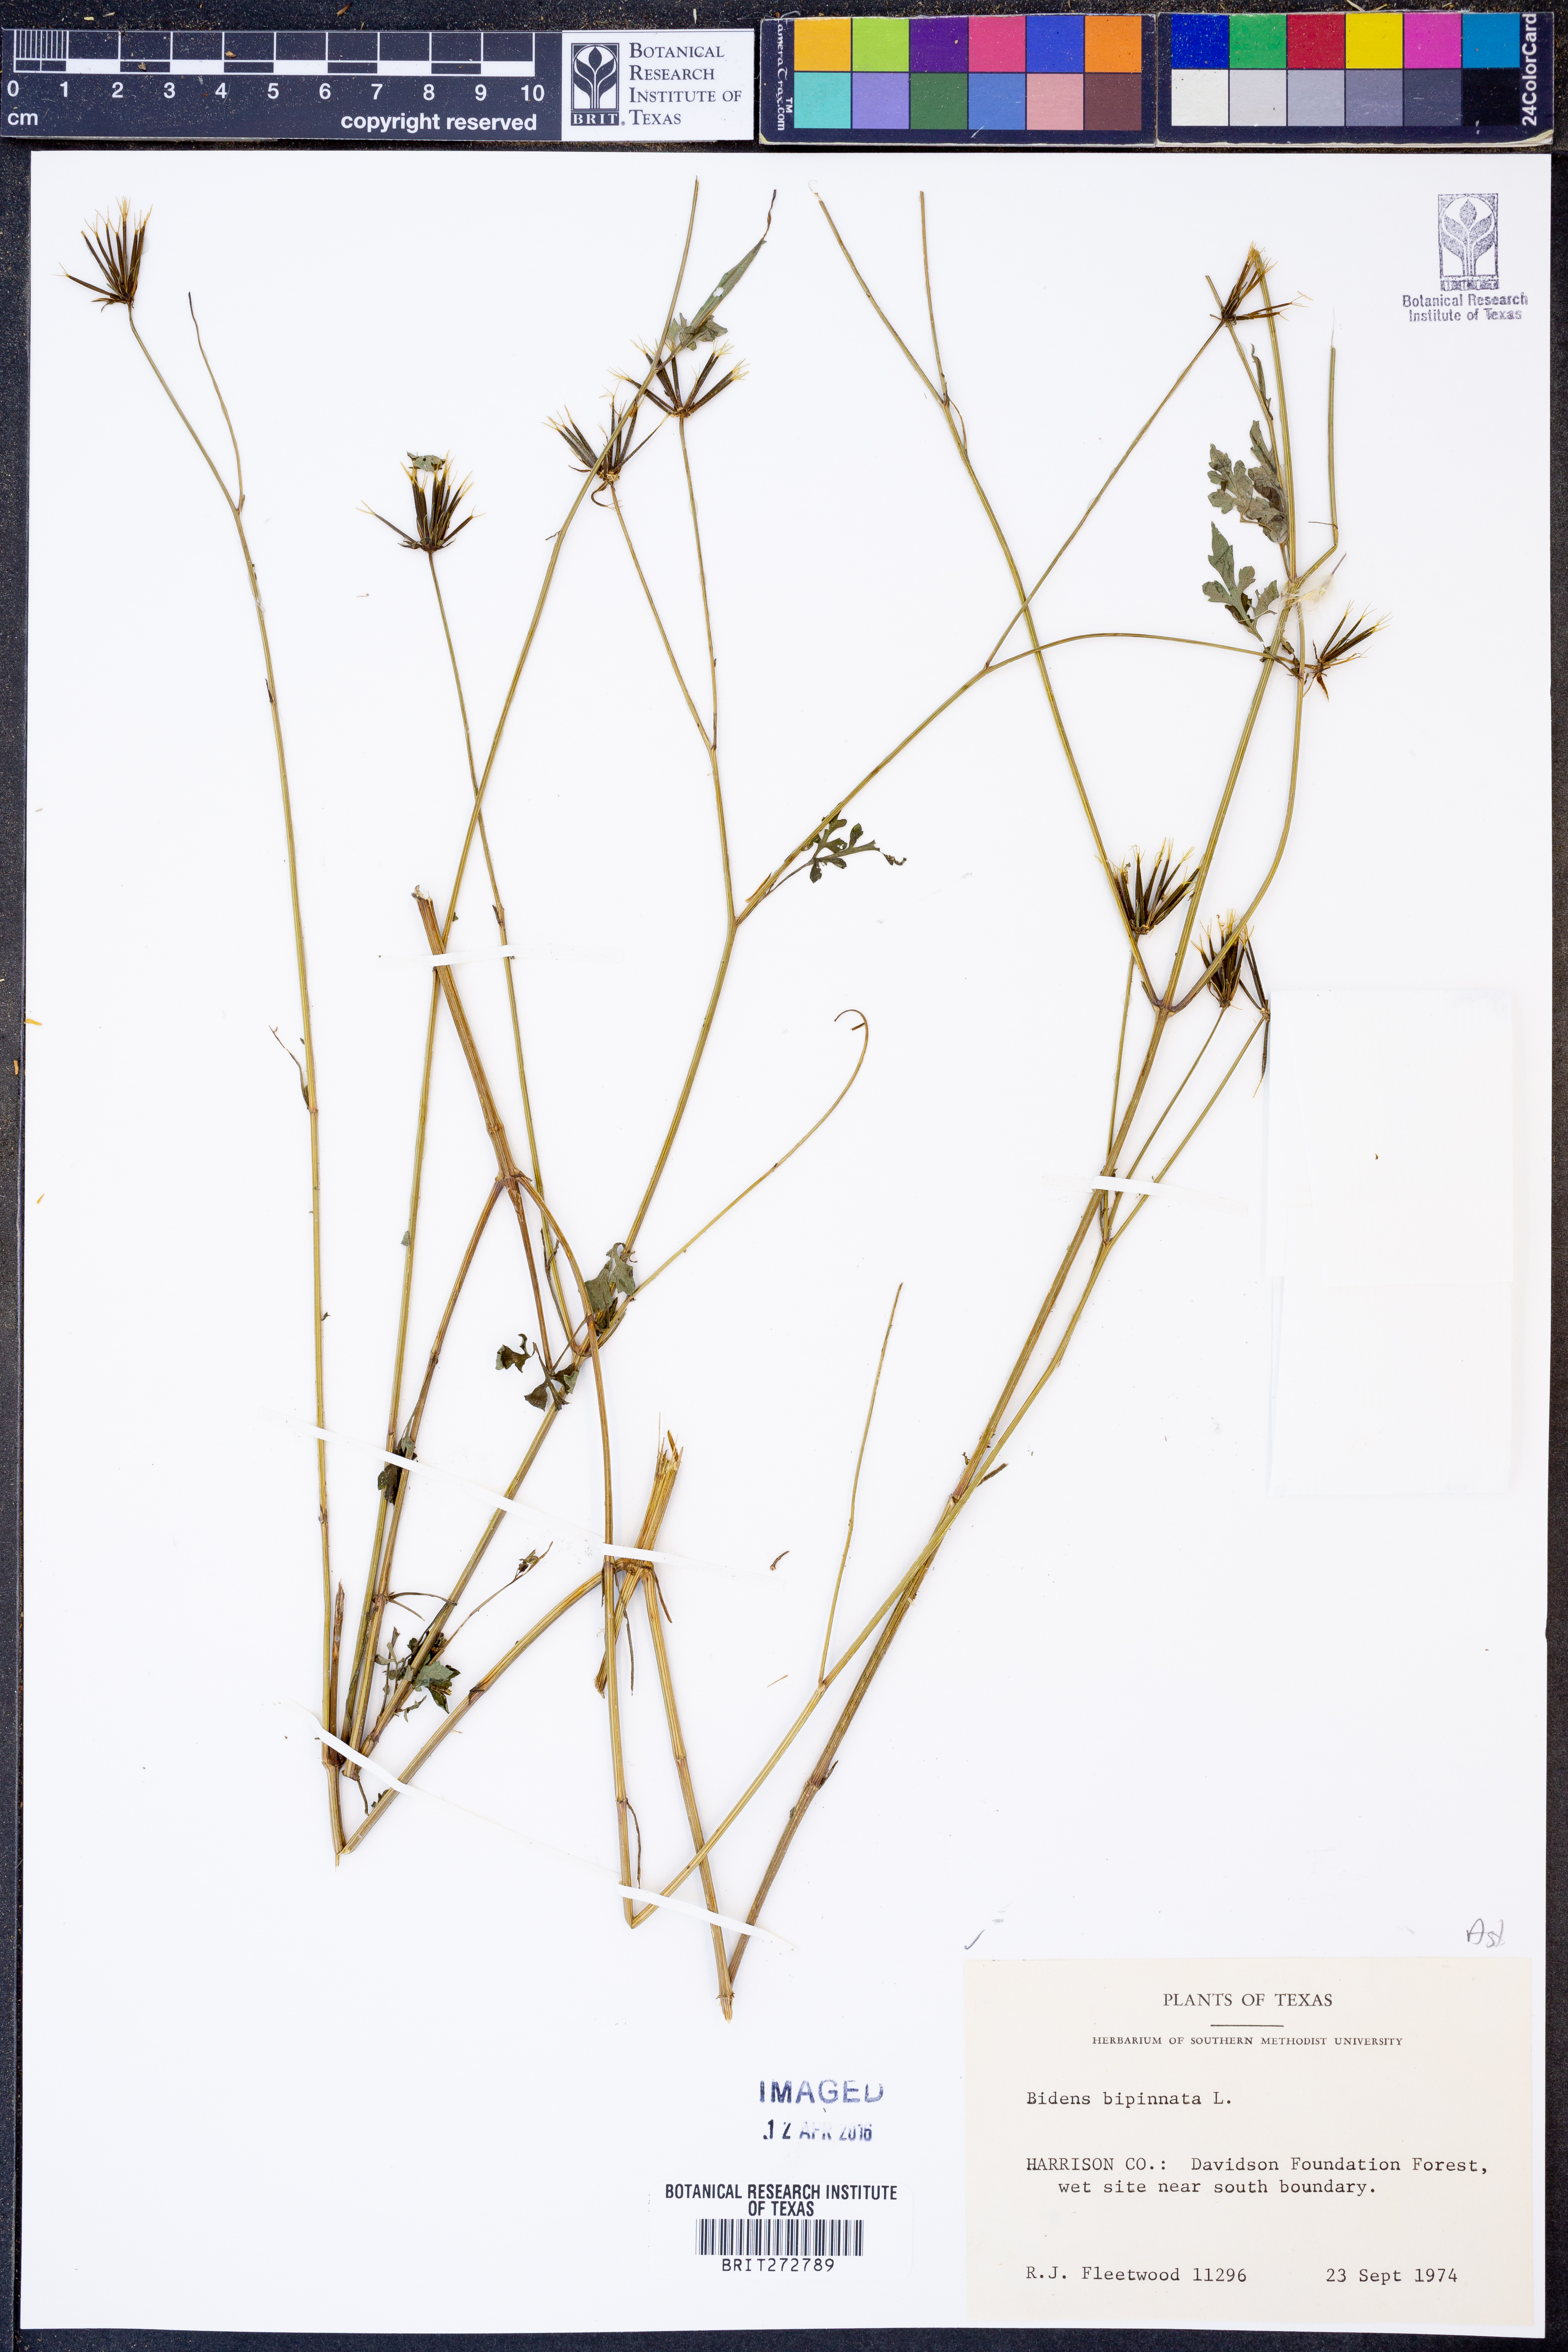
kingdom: Plantae
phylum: Tracheophyta
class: Magnoliopsida
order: Asterales
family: Asteraceae
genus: Bidens
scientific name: Bidens bipinnata
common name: Spanish-needles
